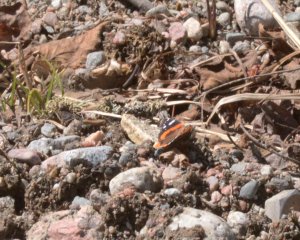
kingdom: Animalia
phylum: Arthropoda
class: Insecta
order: Lepidoptera
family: Nymphalidae
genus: Vanessa
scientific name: Vanessa atalanta
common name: Red Admiral
